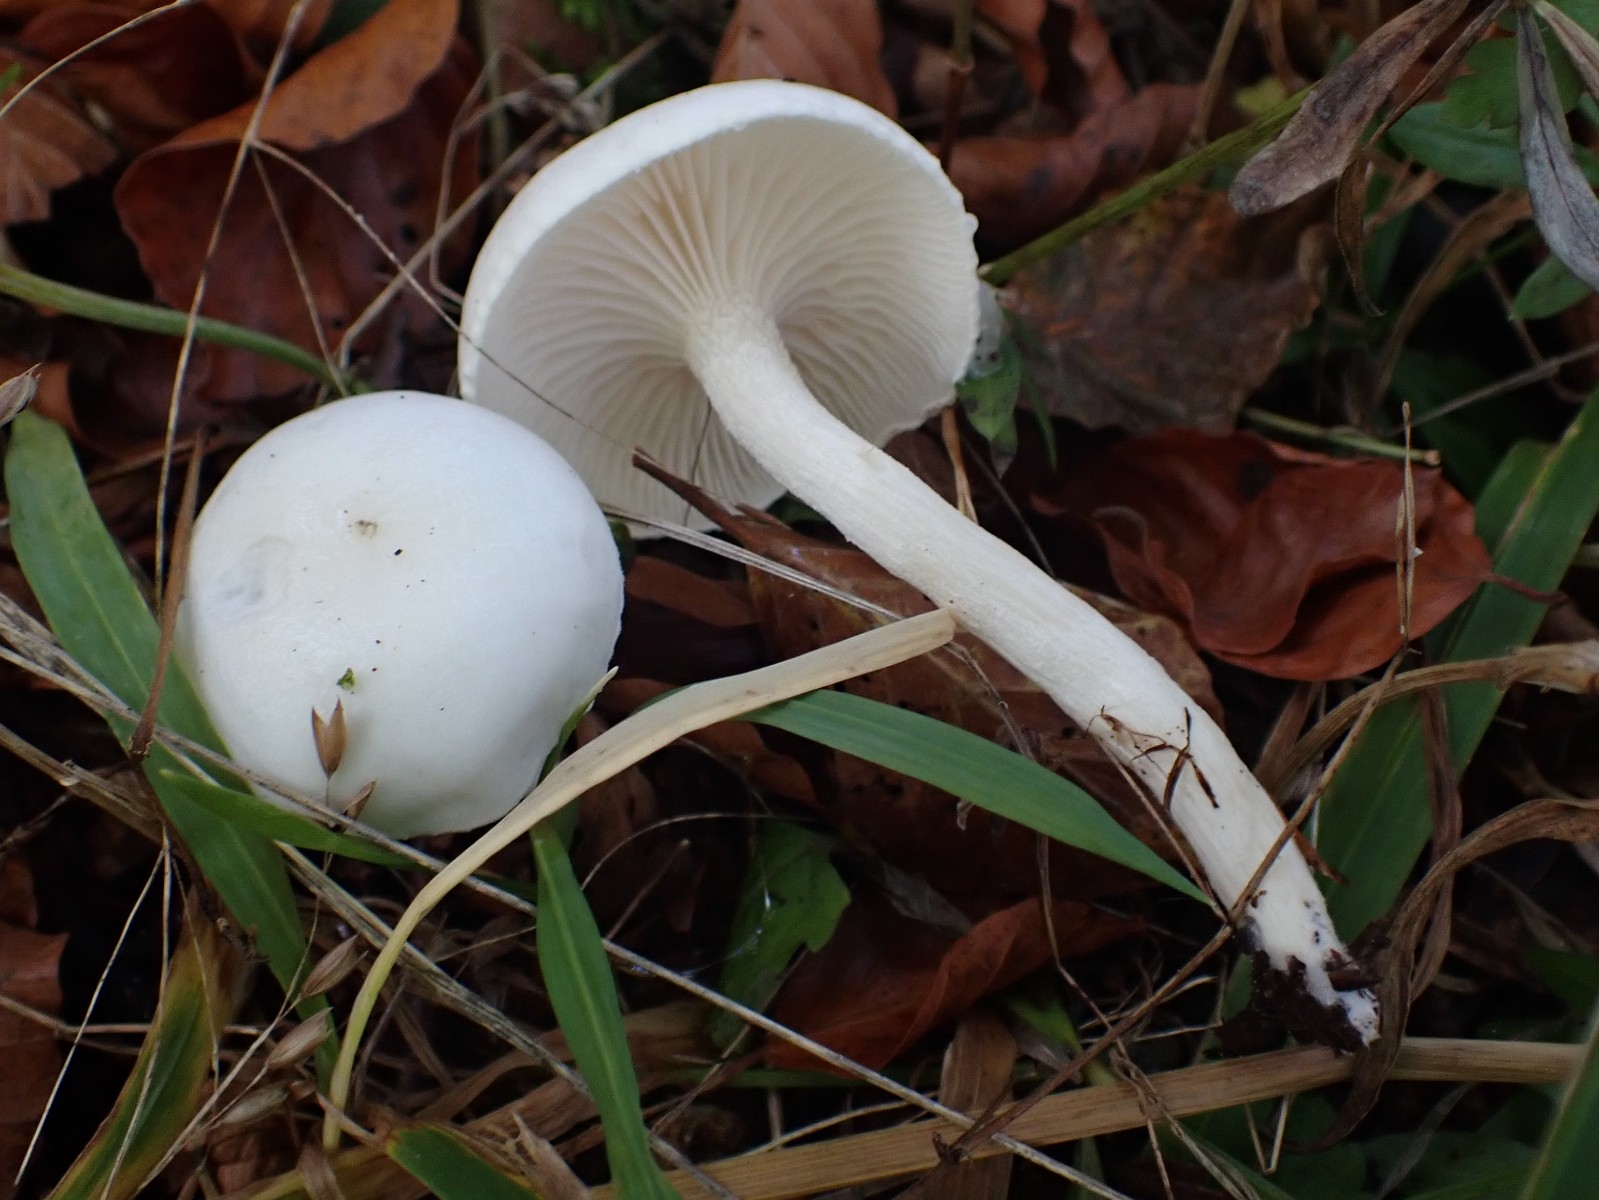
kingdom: Fungi
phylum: Basidiomycota
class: Agaricomycetes
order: Agaricales
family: Hygrophoraceae
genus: Hygrophorus
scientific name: Hygrophorus eburneus
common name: elfenbens-sneglehat
